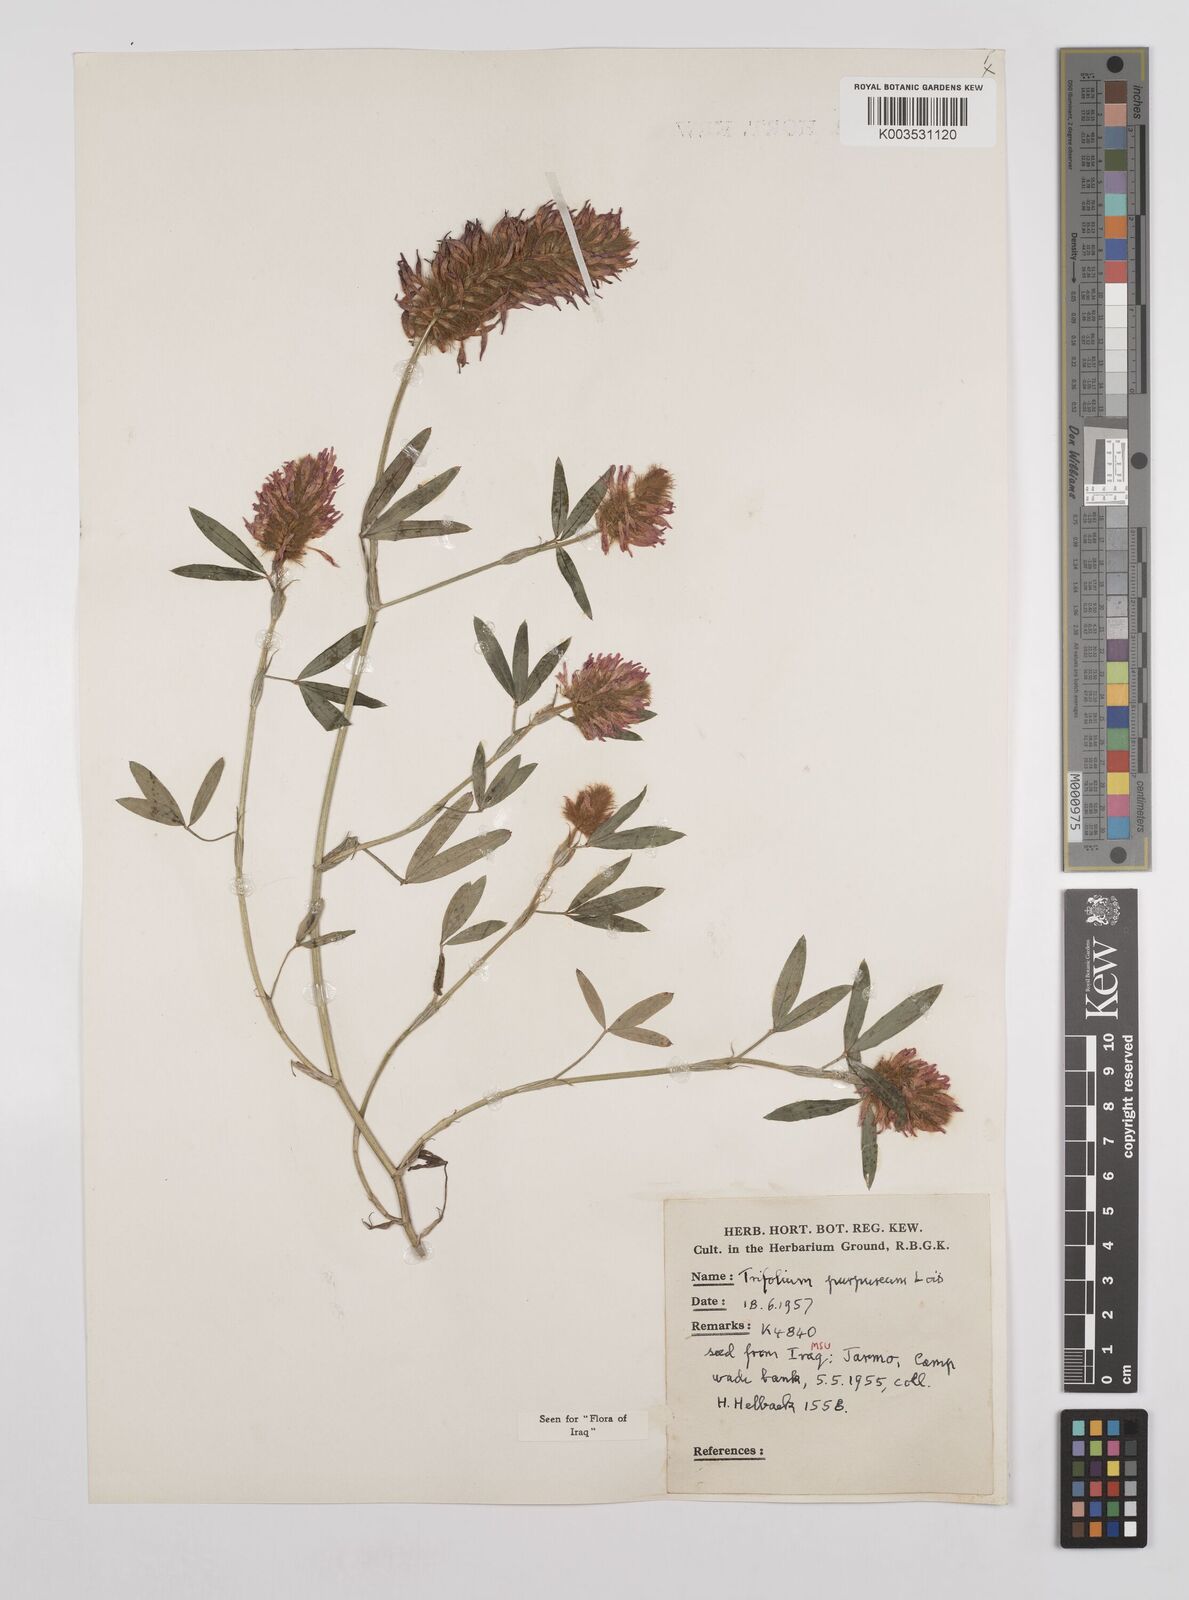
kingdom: Plantae
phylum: Tracheophyta
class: Magnoliopsida
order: Fabales
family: Fabaceae
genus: Trifolium
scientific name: Trifolium purpureum
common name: Purple clover
